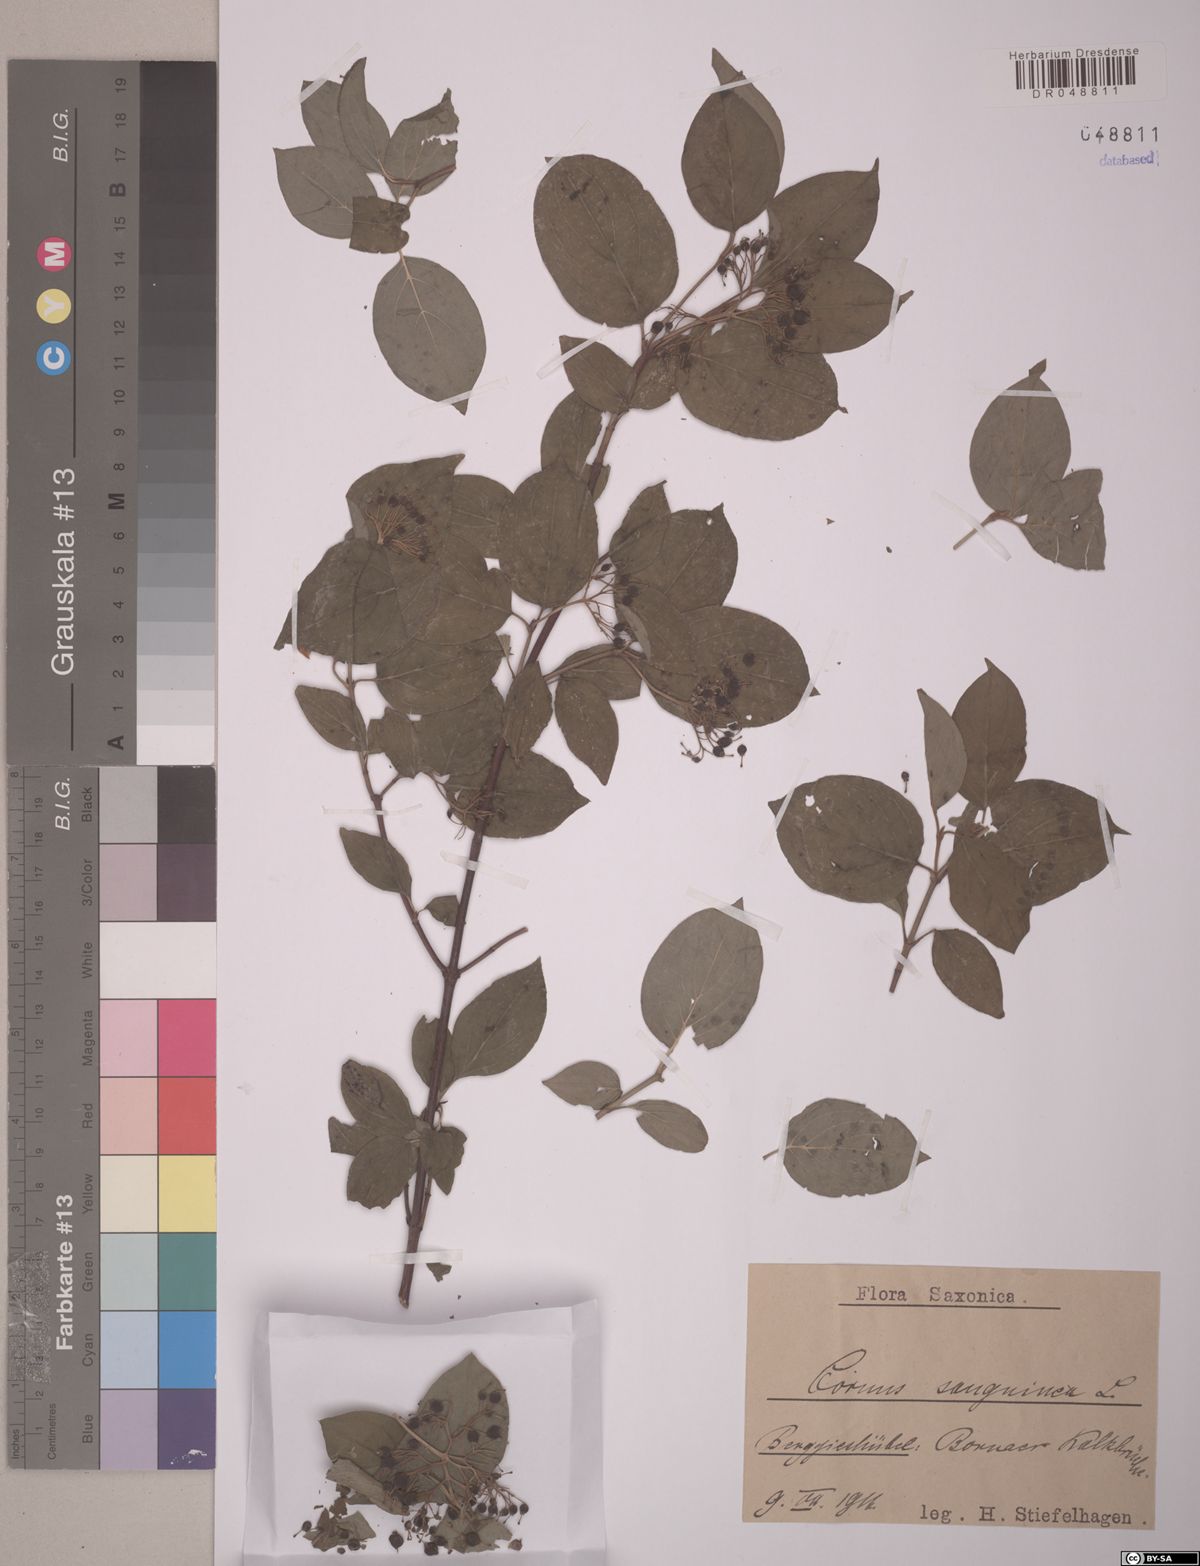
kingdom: Plantae
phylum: Tracheophyta
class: Magnoliopsida
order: Cornales
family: Cornaceae
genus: Cornus
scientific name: Cornus sanguinea
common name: Dogwood
